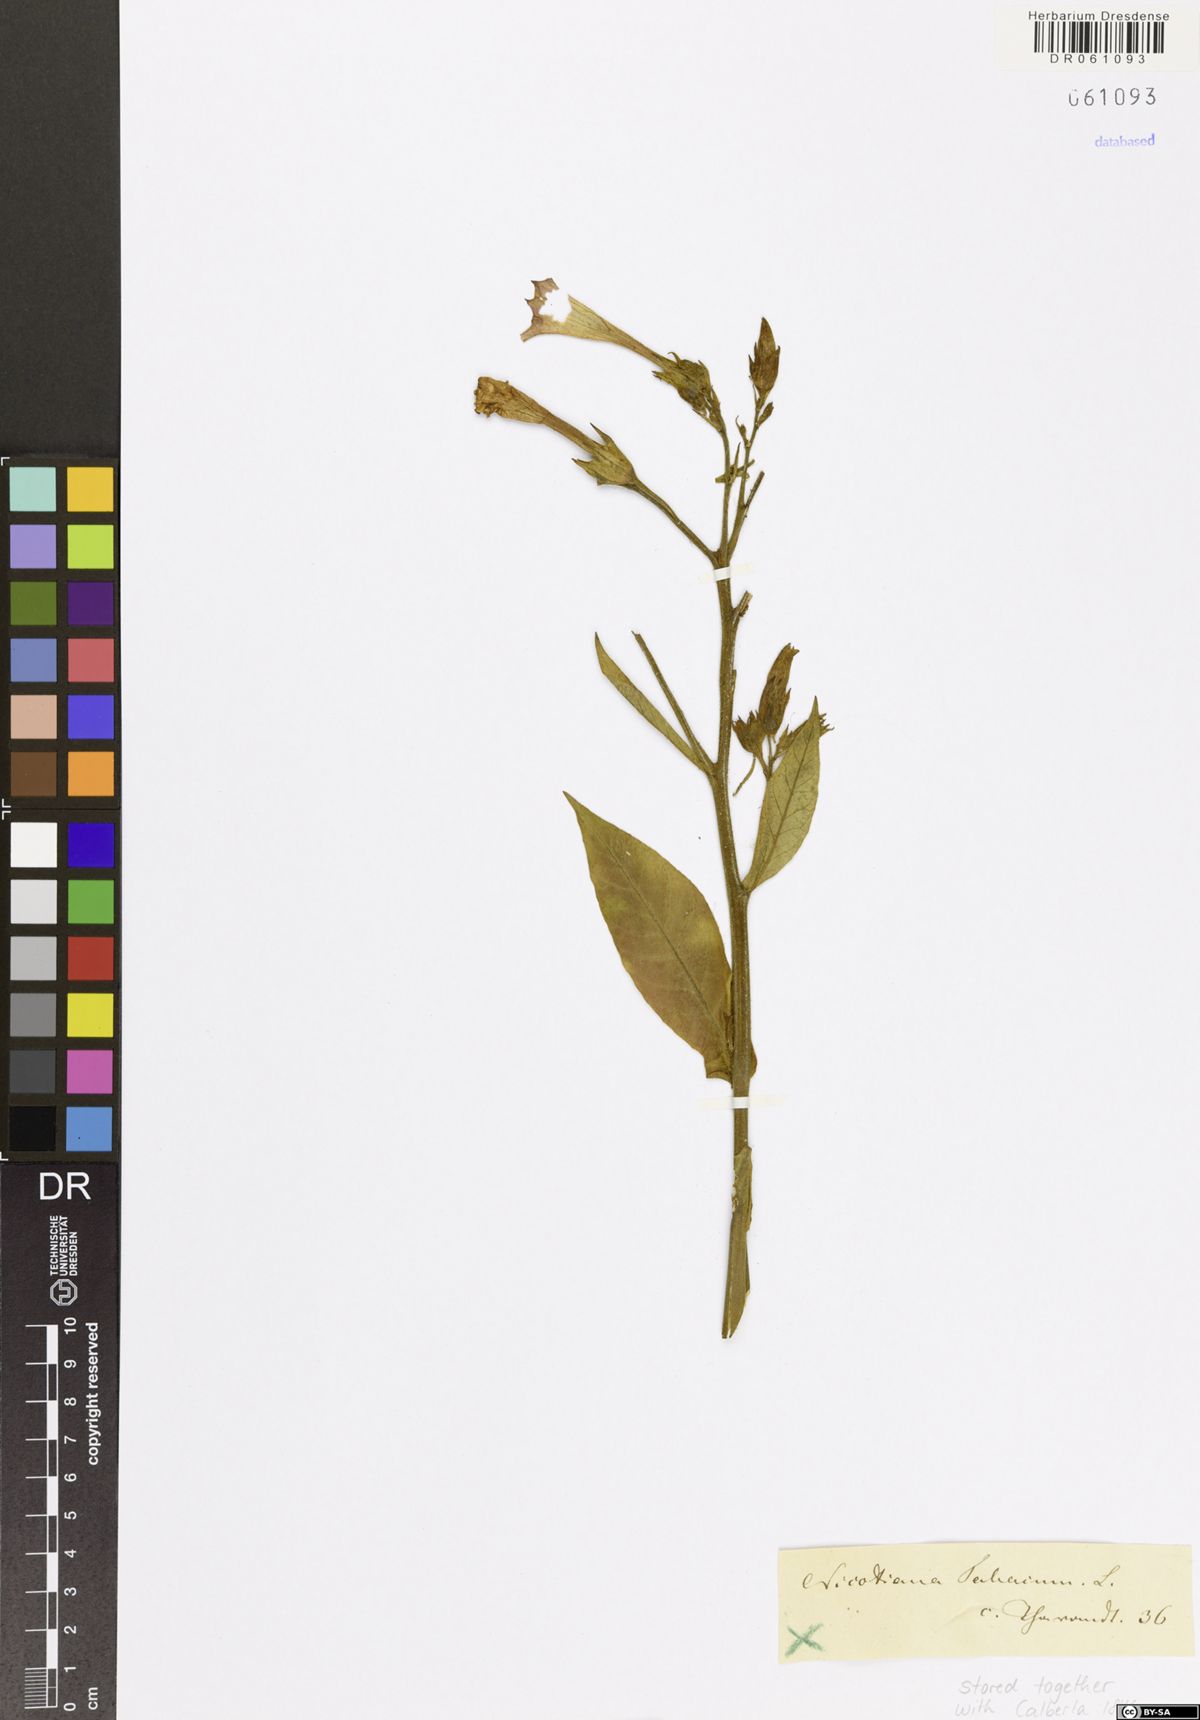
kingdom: Plantae
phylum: Tracheophyta
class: Magnoliopsida
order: Solanales
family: Solanaceae
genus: Nicotiana
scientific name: Nicotiana tabacum
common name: Tobacco
